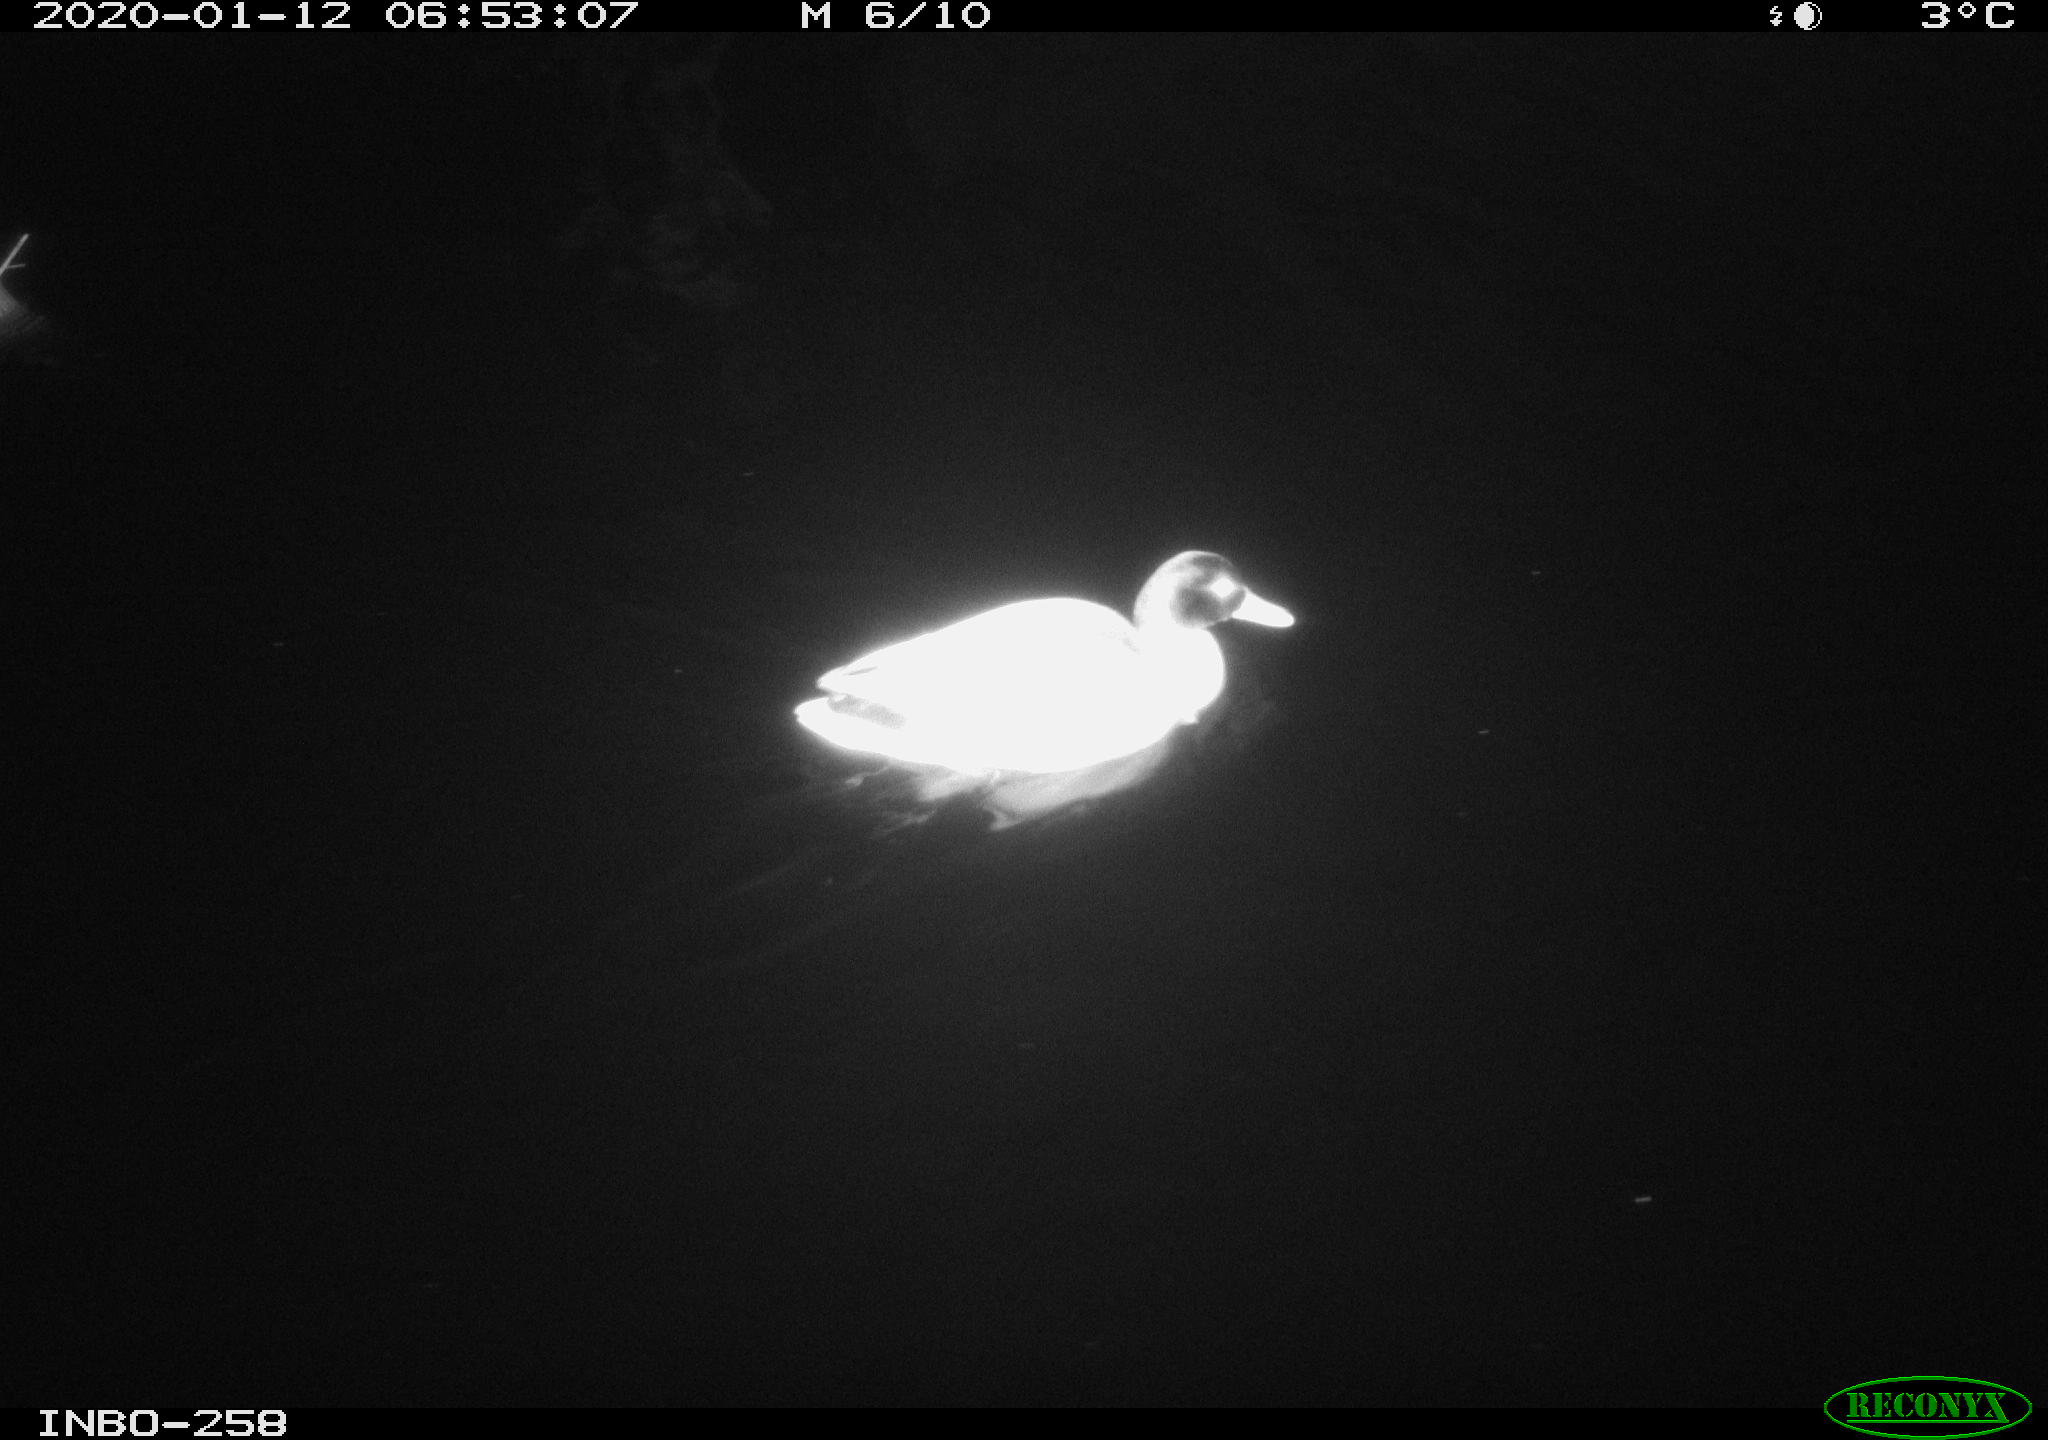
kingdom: Animalia
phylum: Chordata
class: Aves
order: Anseriformes
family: Anatidae
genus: Anas
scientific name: Anas platyrhynchos
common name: Mallard
